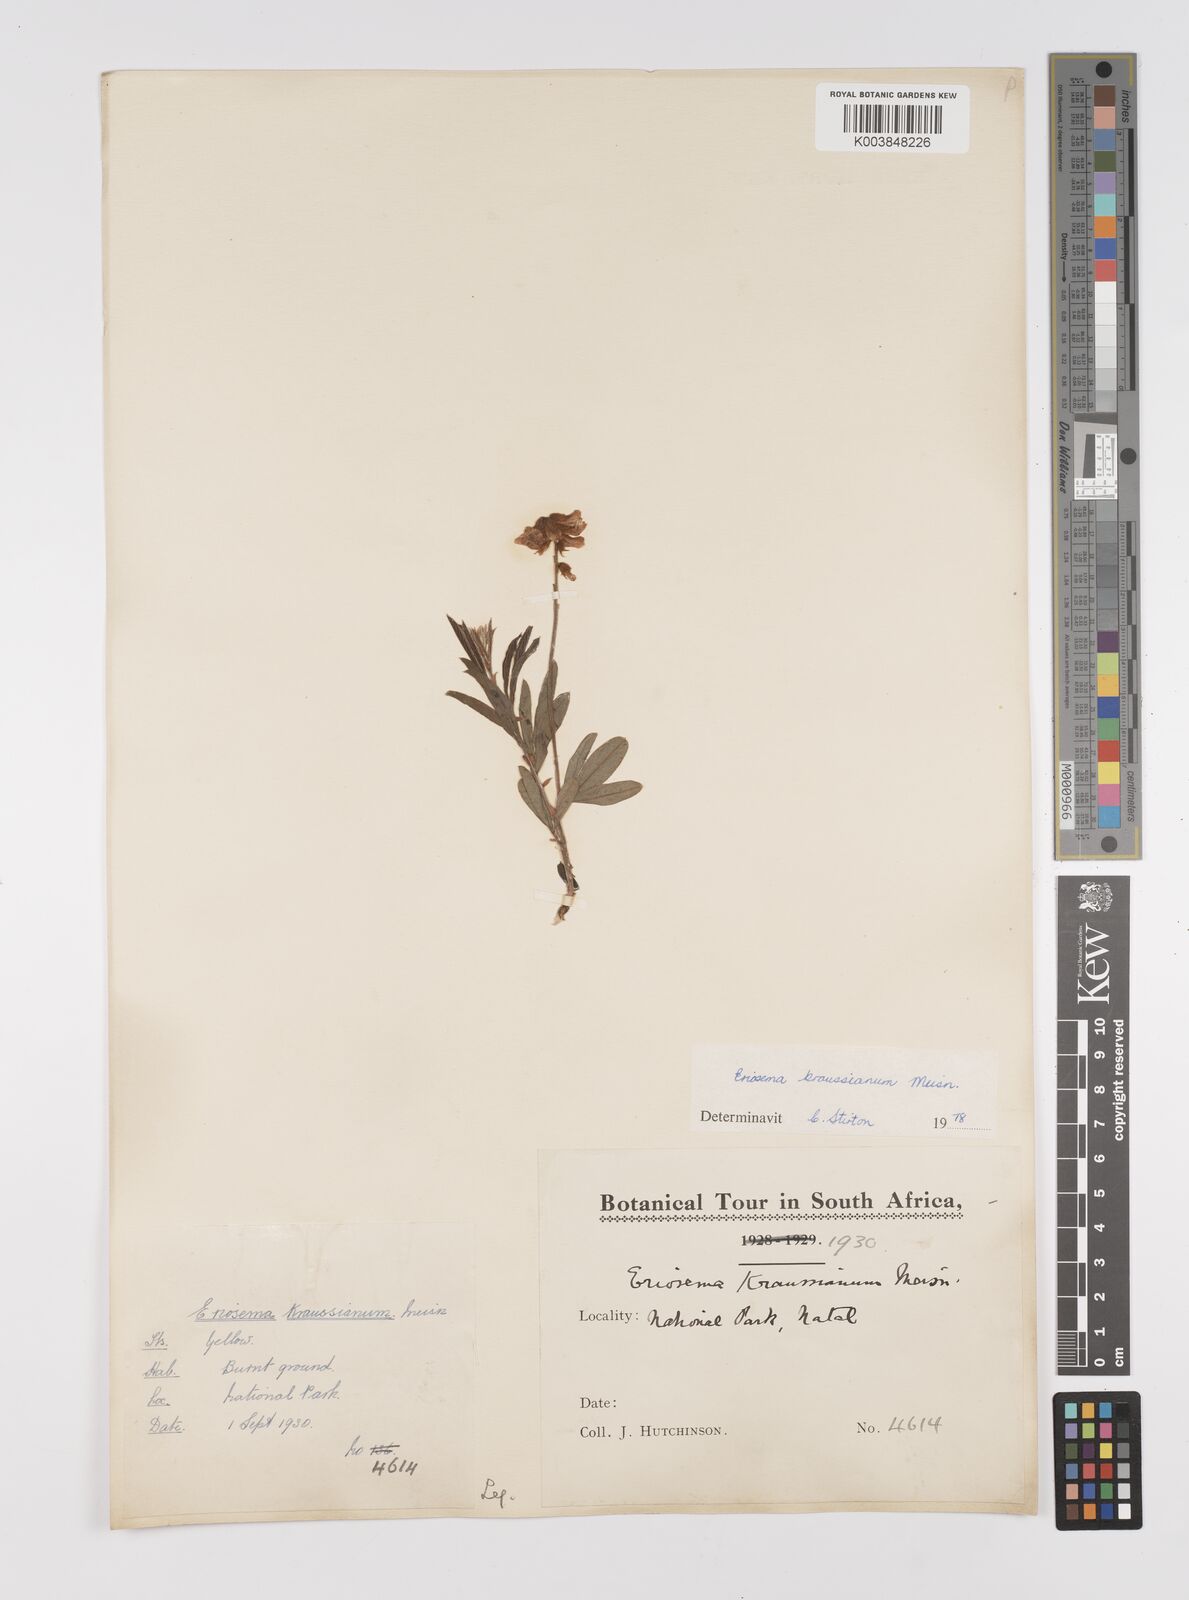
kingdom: Plantae
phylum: Tracheophyta
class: Magnoliopsida
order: Fabales
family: Fabaceae
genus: Eriosema
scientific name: Eriosema kraussianum
